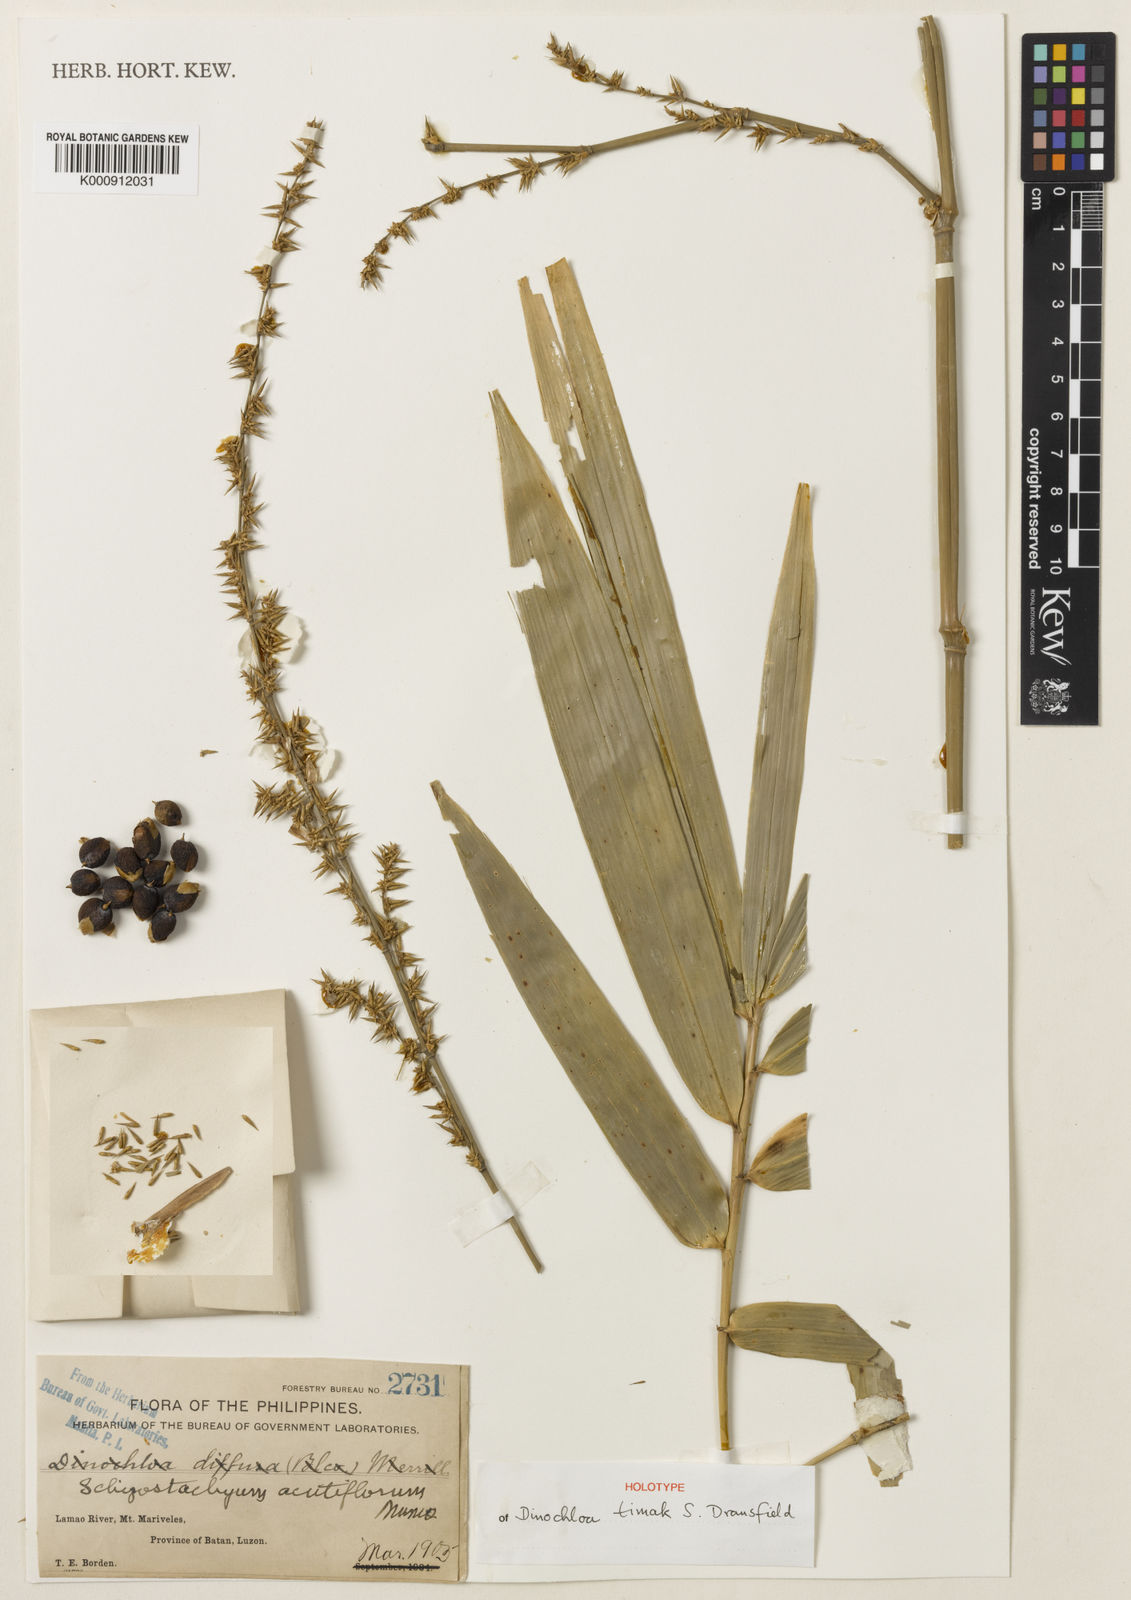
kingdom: Plantae
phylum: Tracheophyta
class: Liliopsida
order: Poales
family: Poaceae
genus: Schizostachyum
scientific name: Schizostachyum
